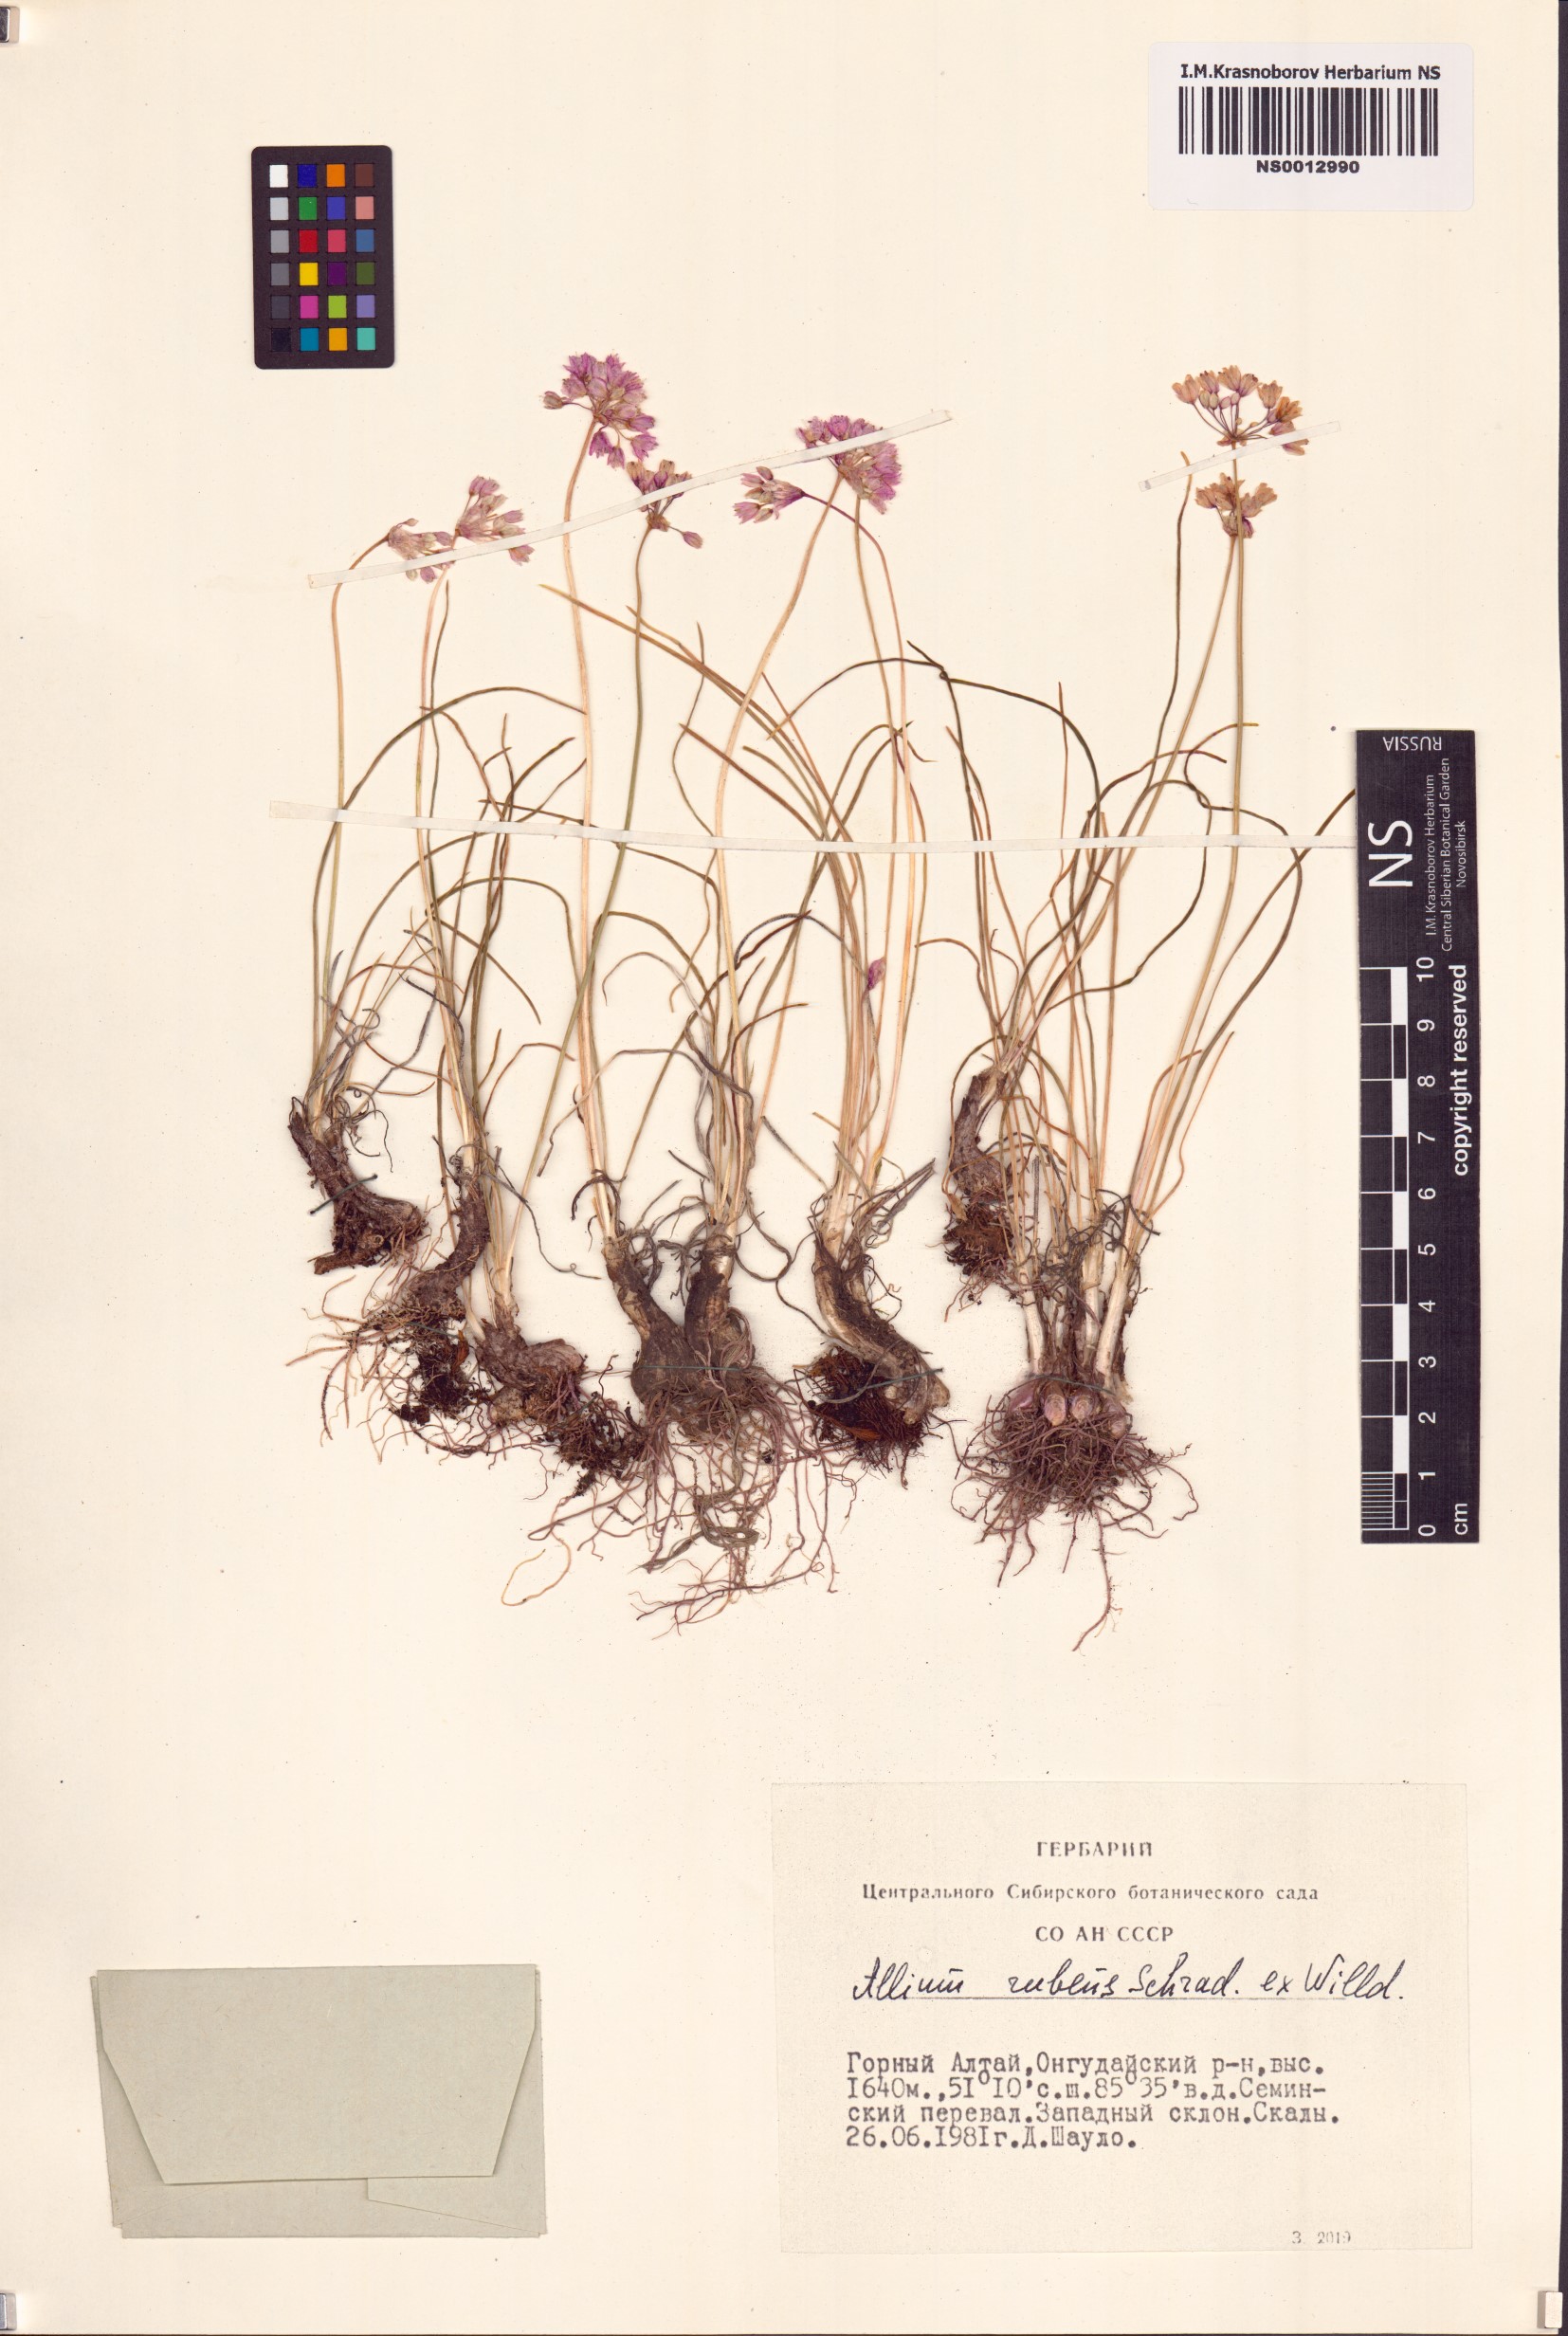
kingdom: Plantae
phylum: Tracheophyta
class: Liliopsida
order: Asparagales
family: Amaryllidaceae
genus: Allium
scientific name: Allium rubens
